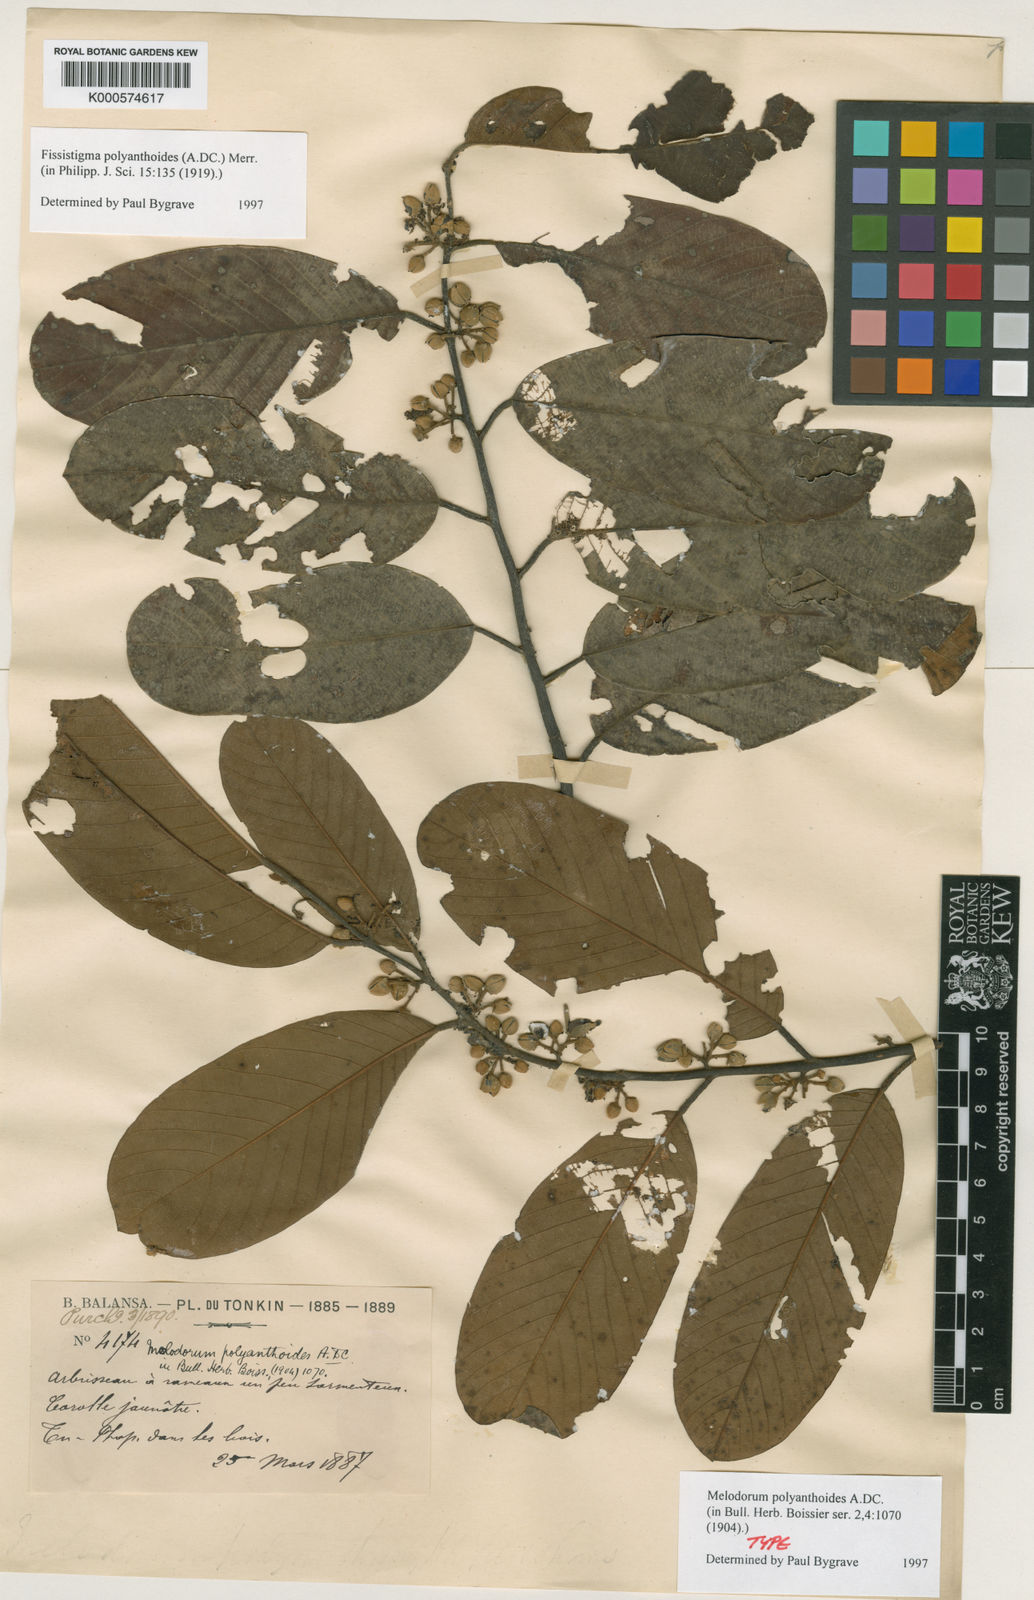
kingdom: Plantae
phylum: Tracheophyta
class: Magnoliopsida
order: Magnoliales
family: Annonaceae
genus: Fissistigma
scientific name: Fissistigma polyanthoides
